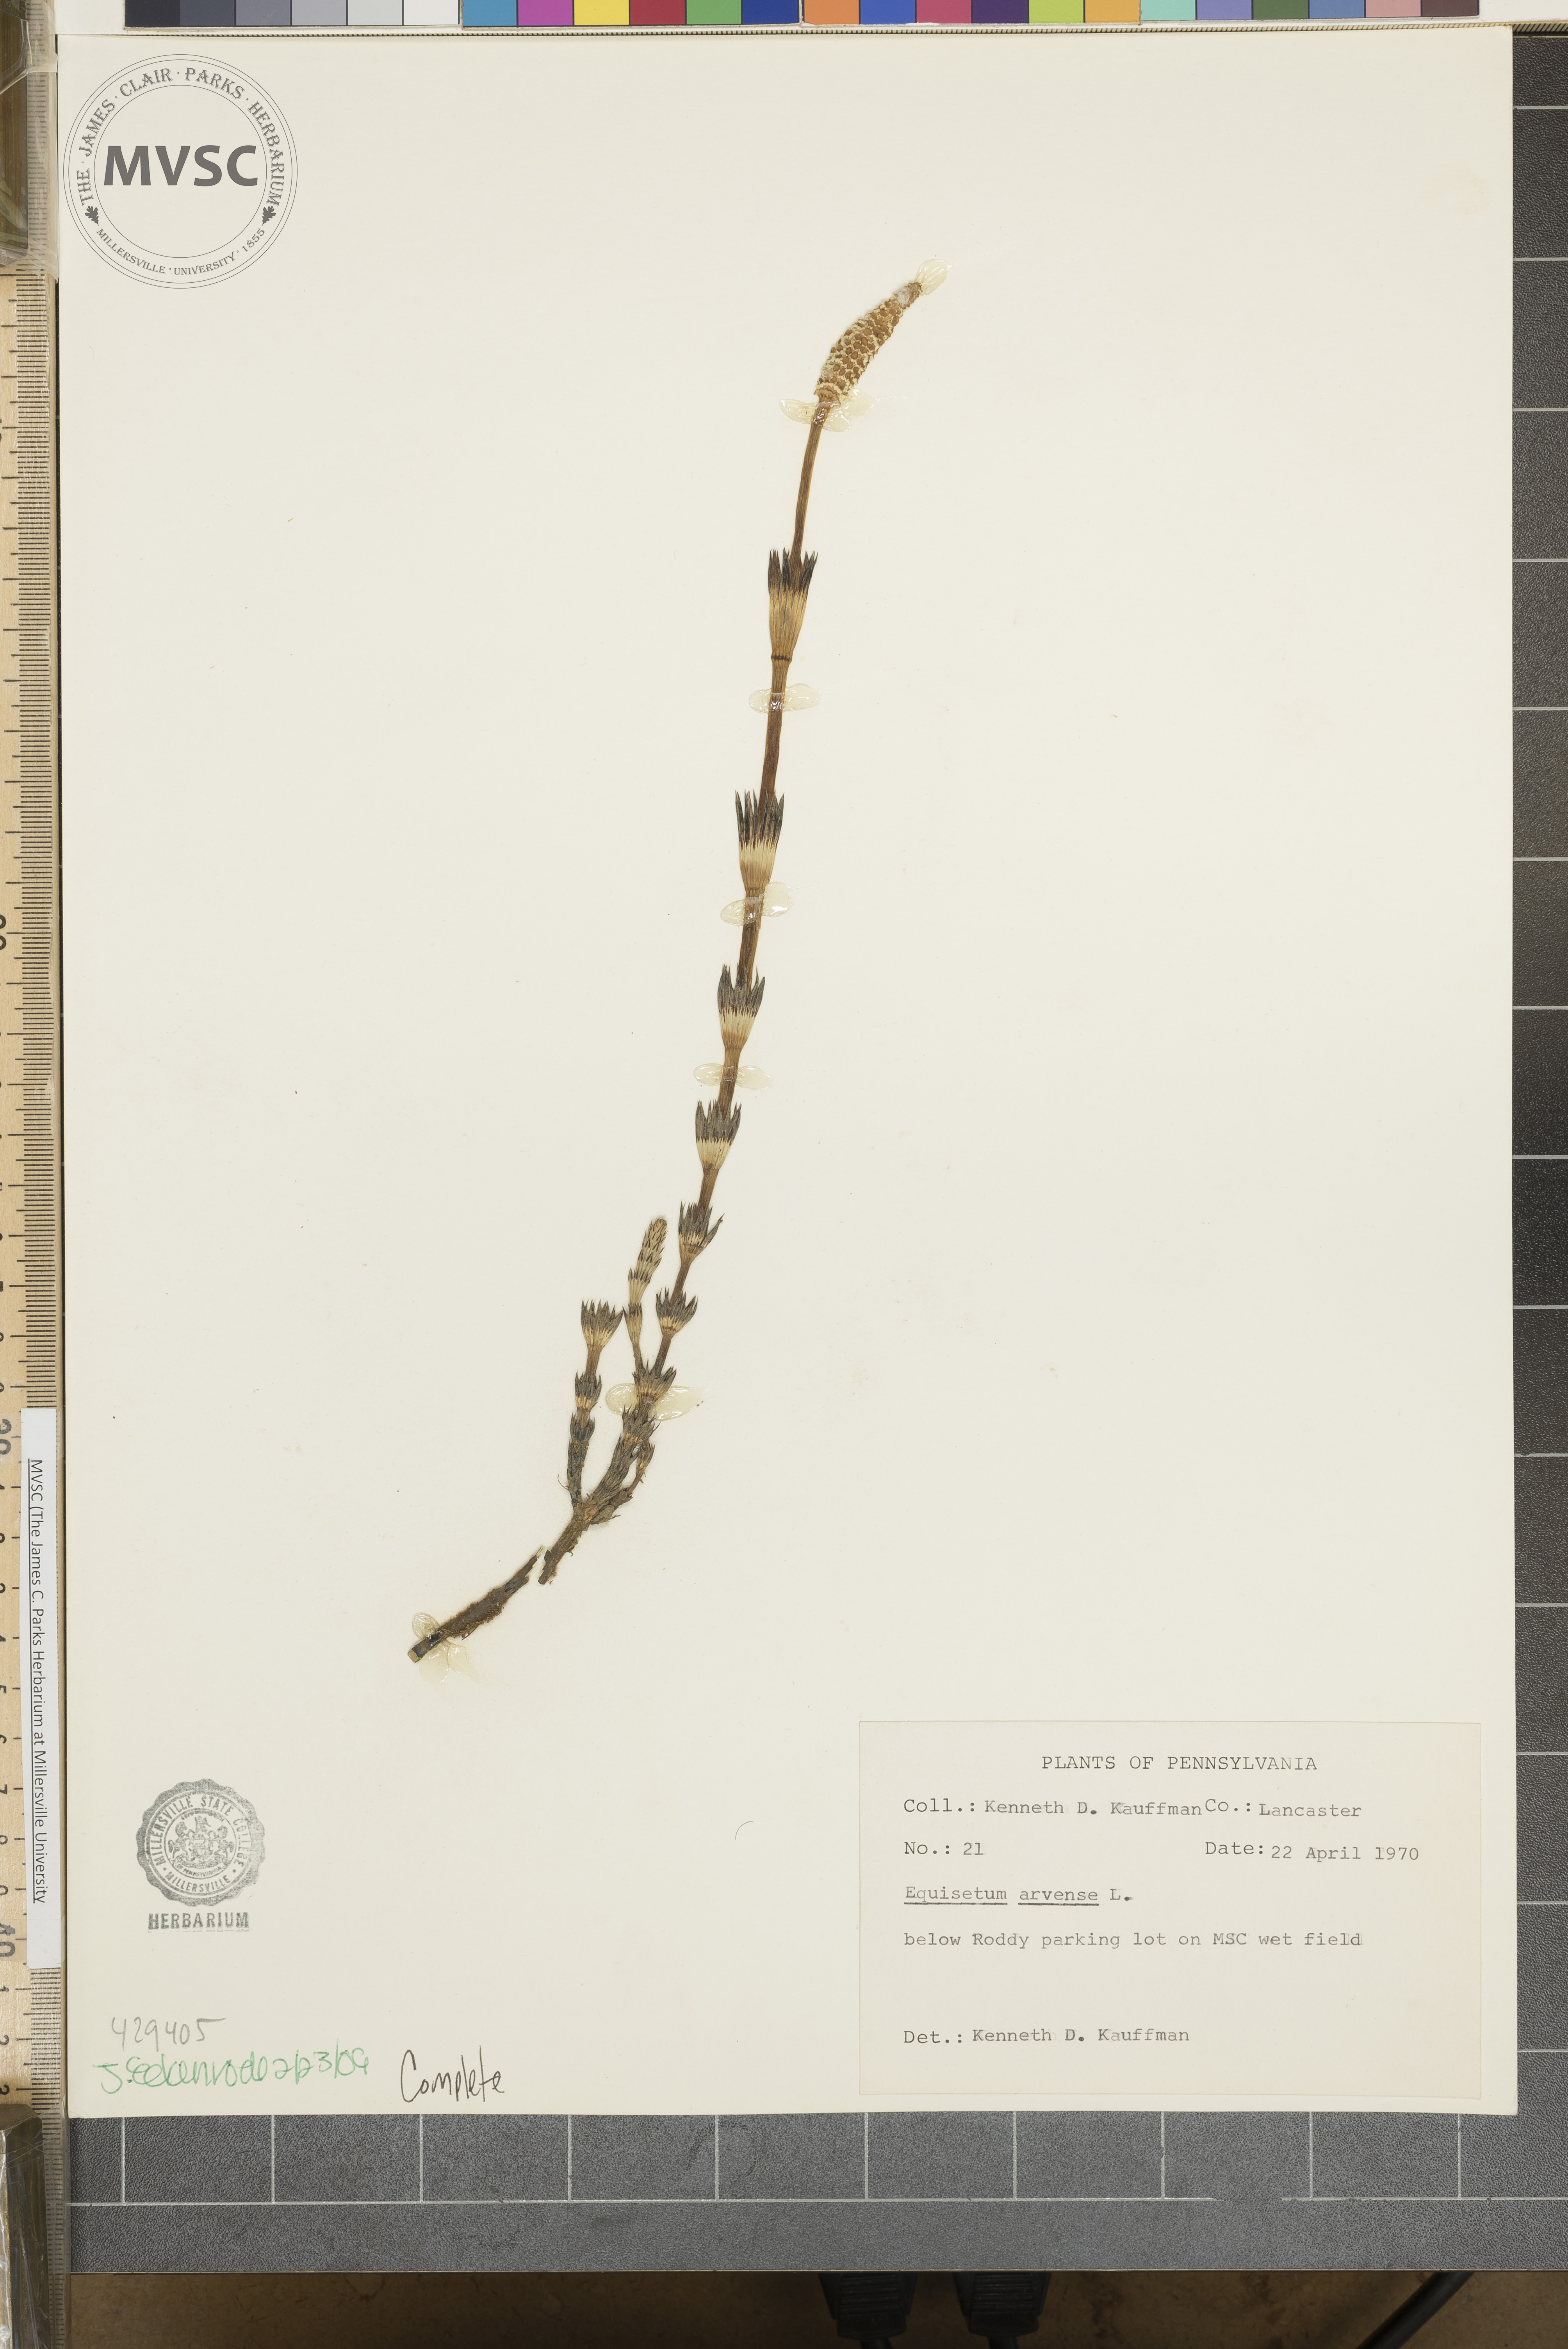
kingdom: Plantae
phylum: Tracheophyta
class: Polypodiopsida
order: Equisetales
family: Equisetaceae
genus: Equisetum
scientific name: Equisetum arvense
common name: Field horsetail
